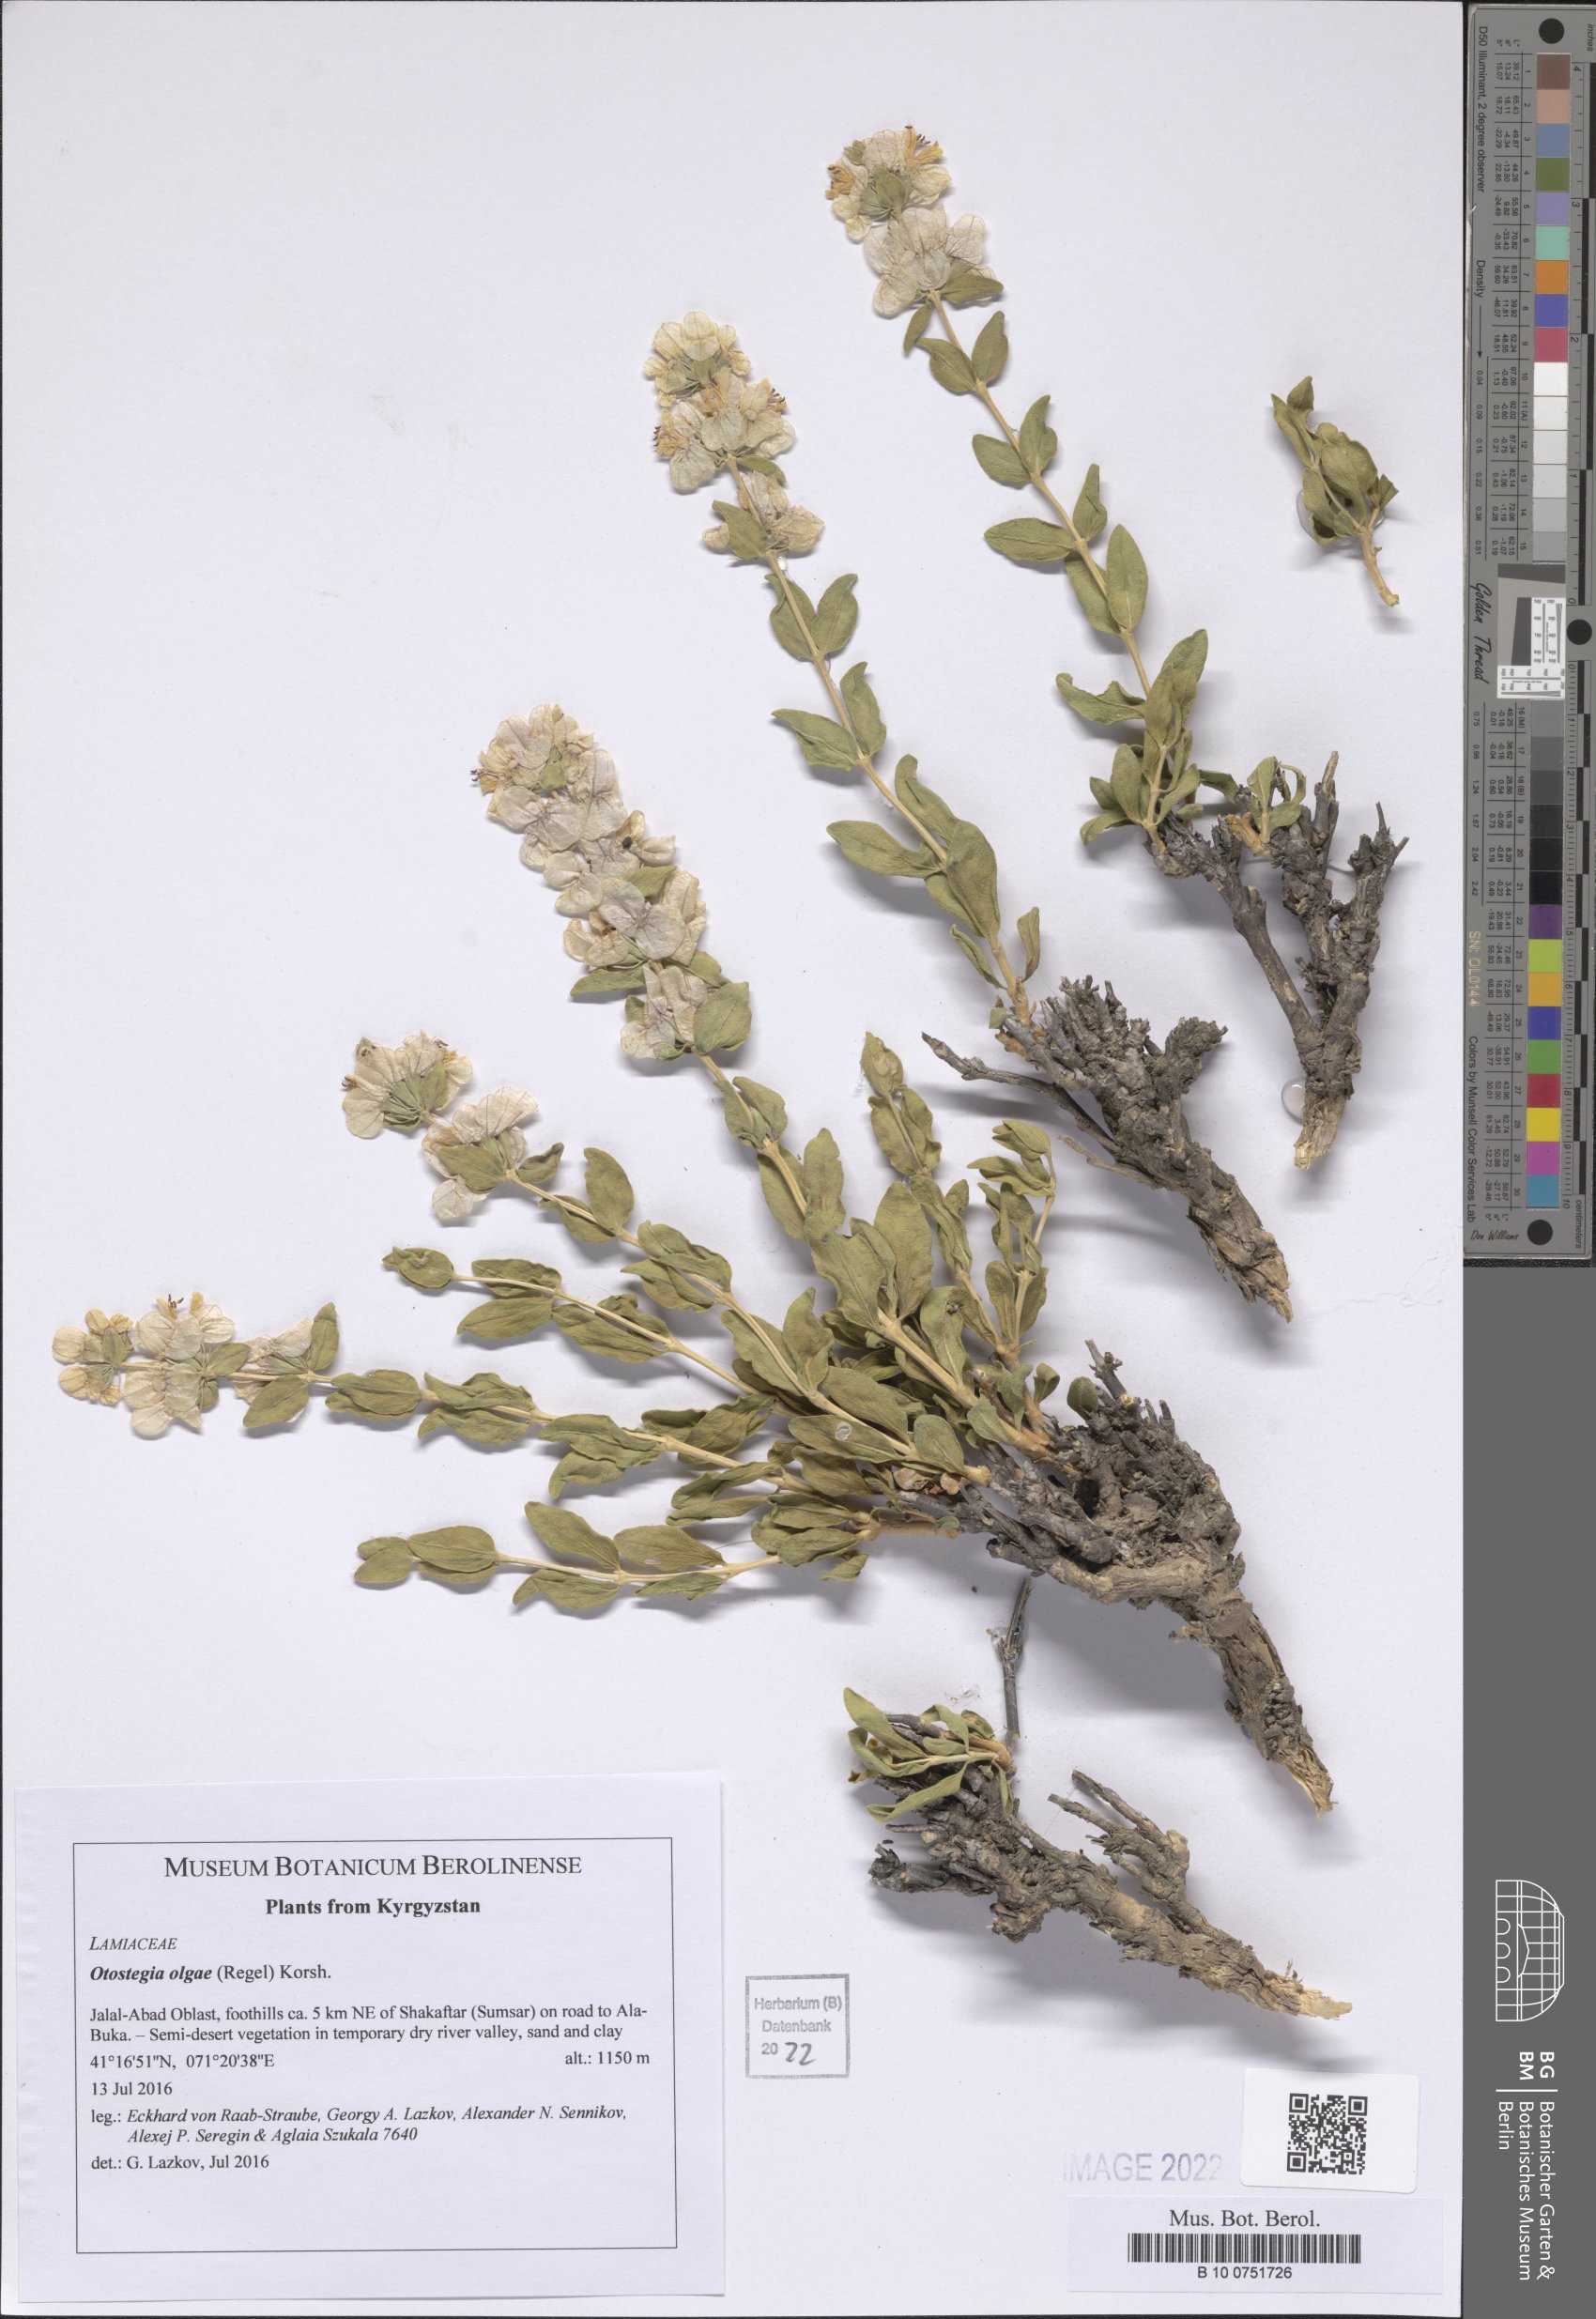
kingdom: Plantae
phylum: Tracheophyta
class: Magnoliopsida
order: Lamiales
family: Lamiaceae
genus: Moluccella
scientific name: Moluccella olgae
